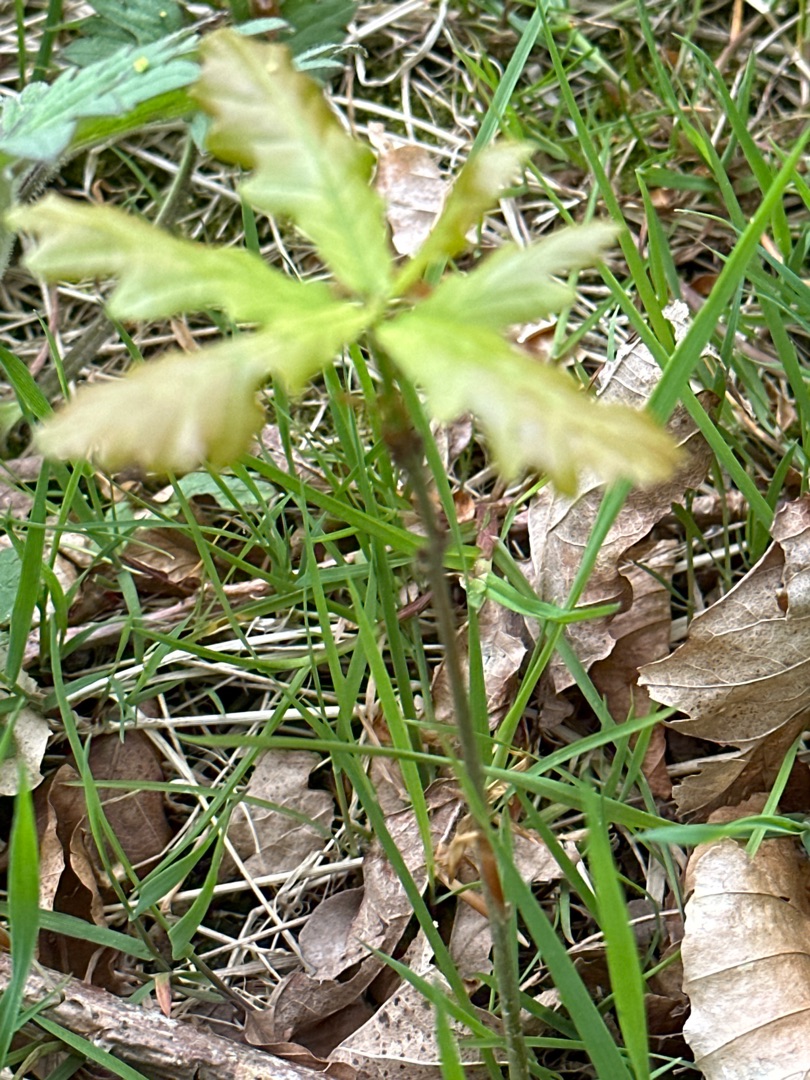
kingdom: Plantae
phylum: Tracheophyta
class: Magnoliopsida
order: Fagales
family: Fagaceae
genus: Quercus
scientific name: Quercus robur
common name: Stilk-eg/almindelig eg
